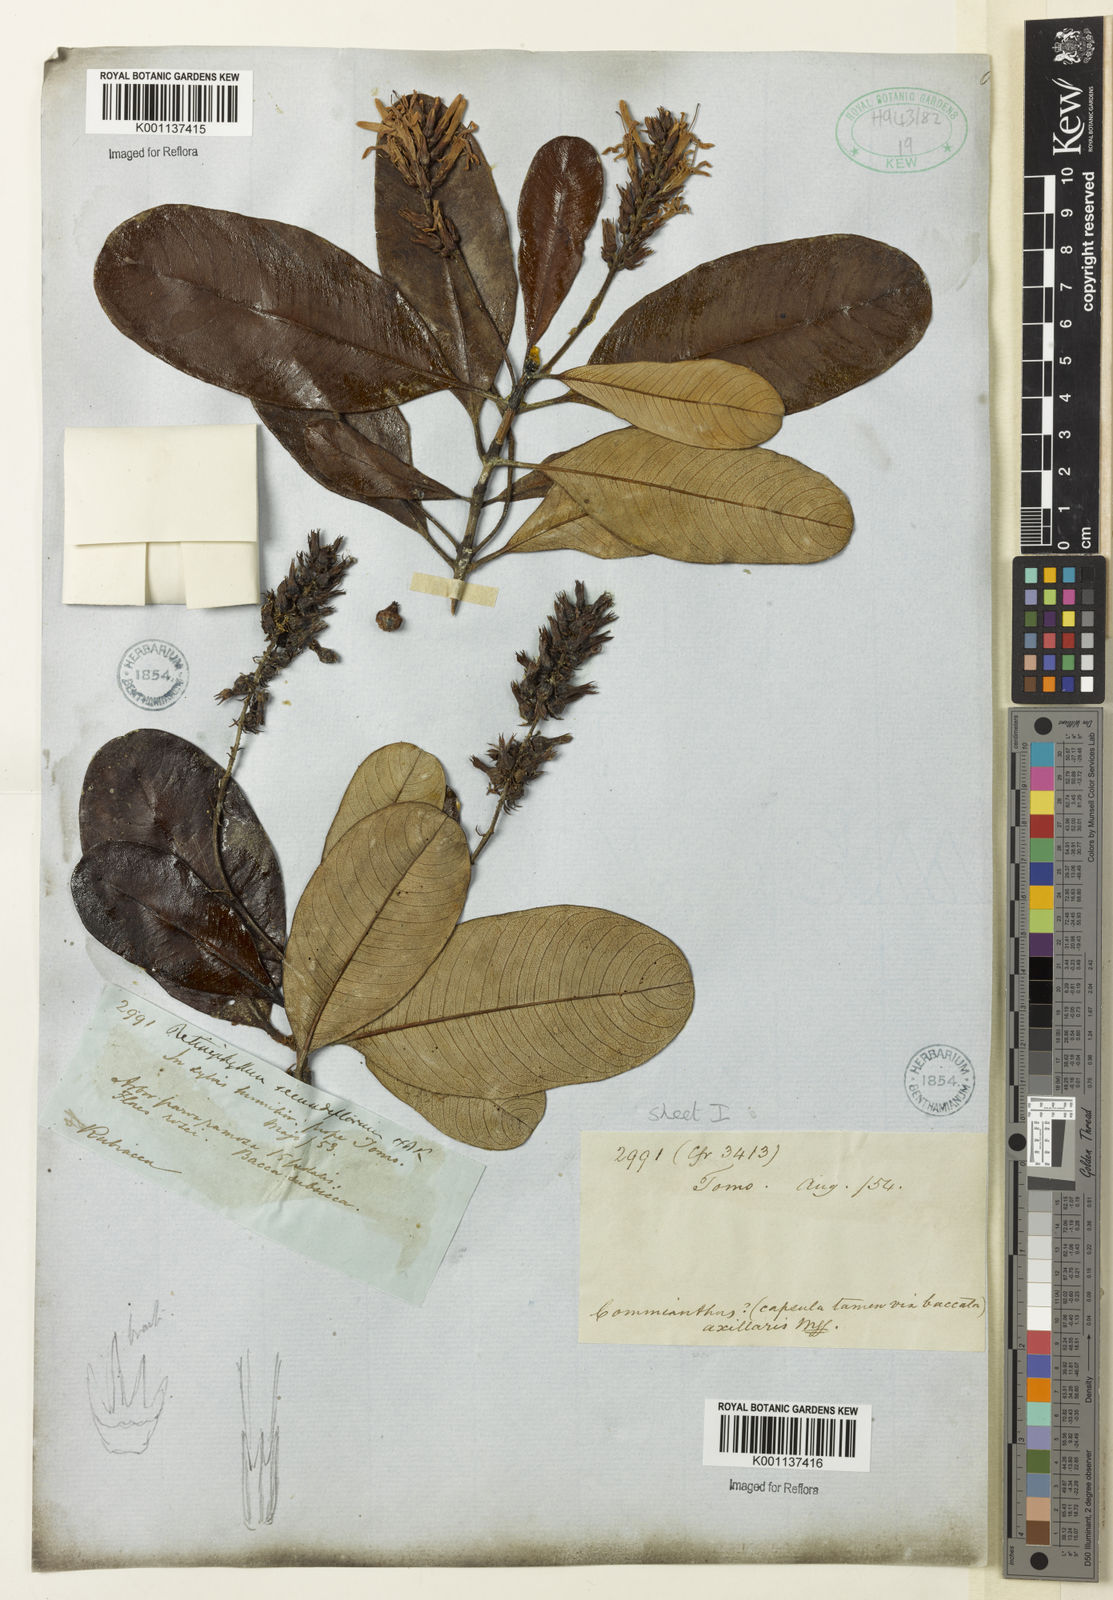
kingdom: Plantae
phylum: Tracheophyta
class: Magnoliopsida
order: Gentianales
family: Rubiaceae
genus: Retiniphyllum
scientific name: Retiniphyllum secundiflorum
